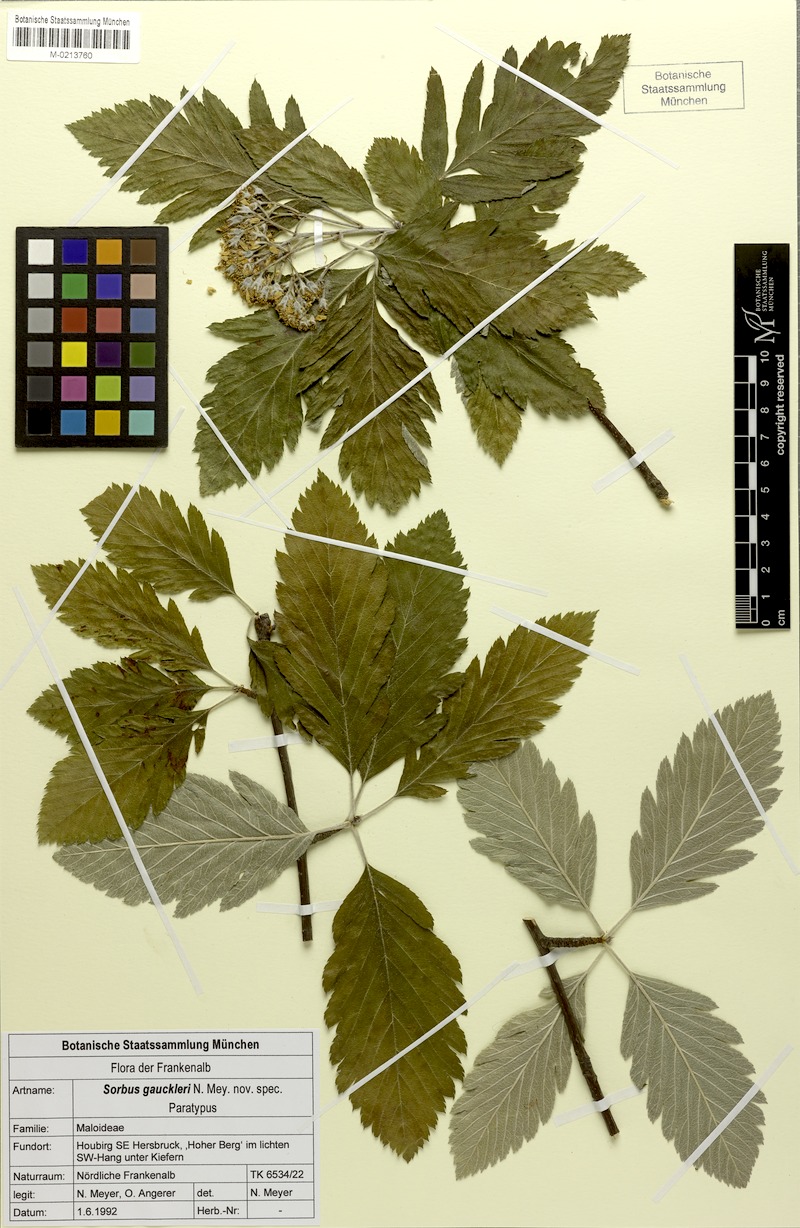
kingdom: Plantae
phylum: Tracheophyta
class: Magnoliopsida
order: Rosales
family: Rosaceae
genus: Hedlundia
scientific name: Hedlundia gauckleri
